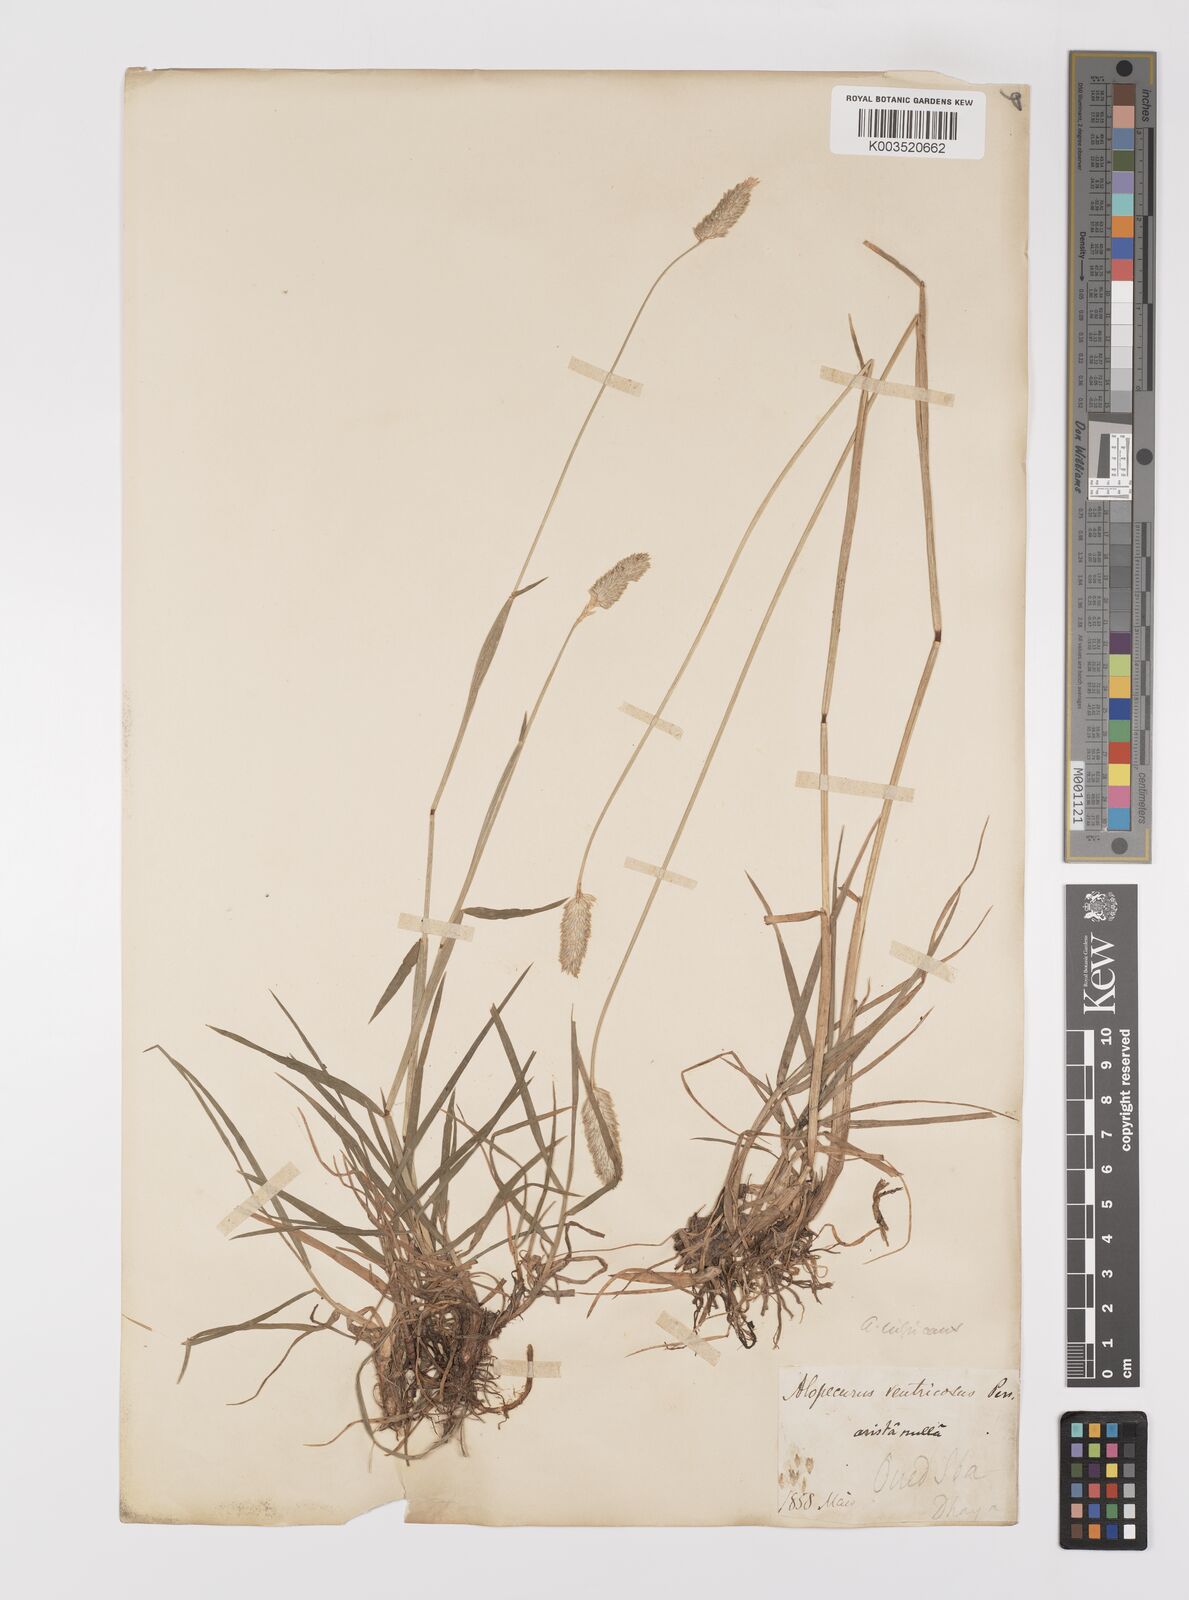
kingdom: Plantae
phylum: Tracheophyta
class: Liliopsida
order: Poales
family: Poaceae
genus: Alopecurus
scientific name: Alopecurus pratensis
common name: Meadow foxtail
